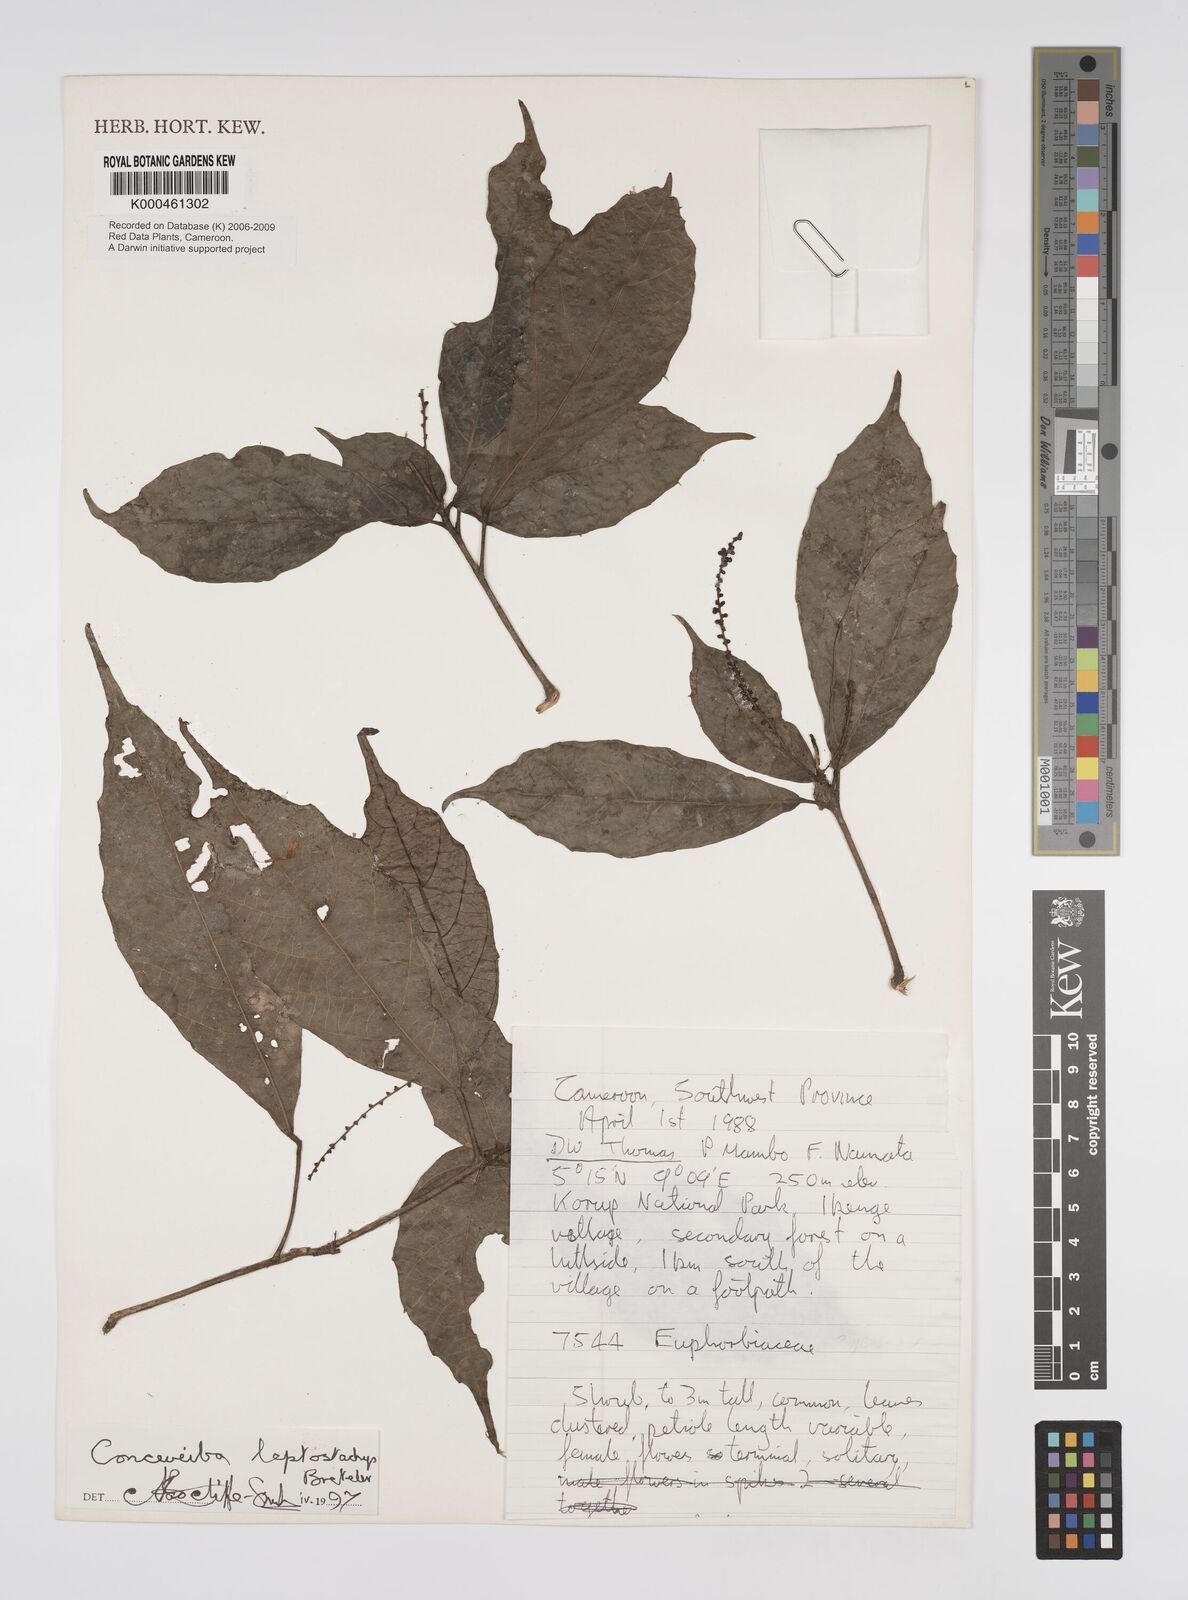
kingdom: Plantae
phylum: Tracheophyta
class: Magnoliopsida
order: Malpighiales
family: Euphorbiaceae
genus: Aubletiana
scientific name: Aubletiana leptostachys
